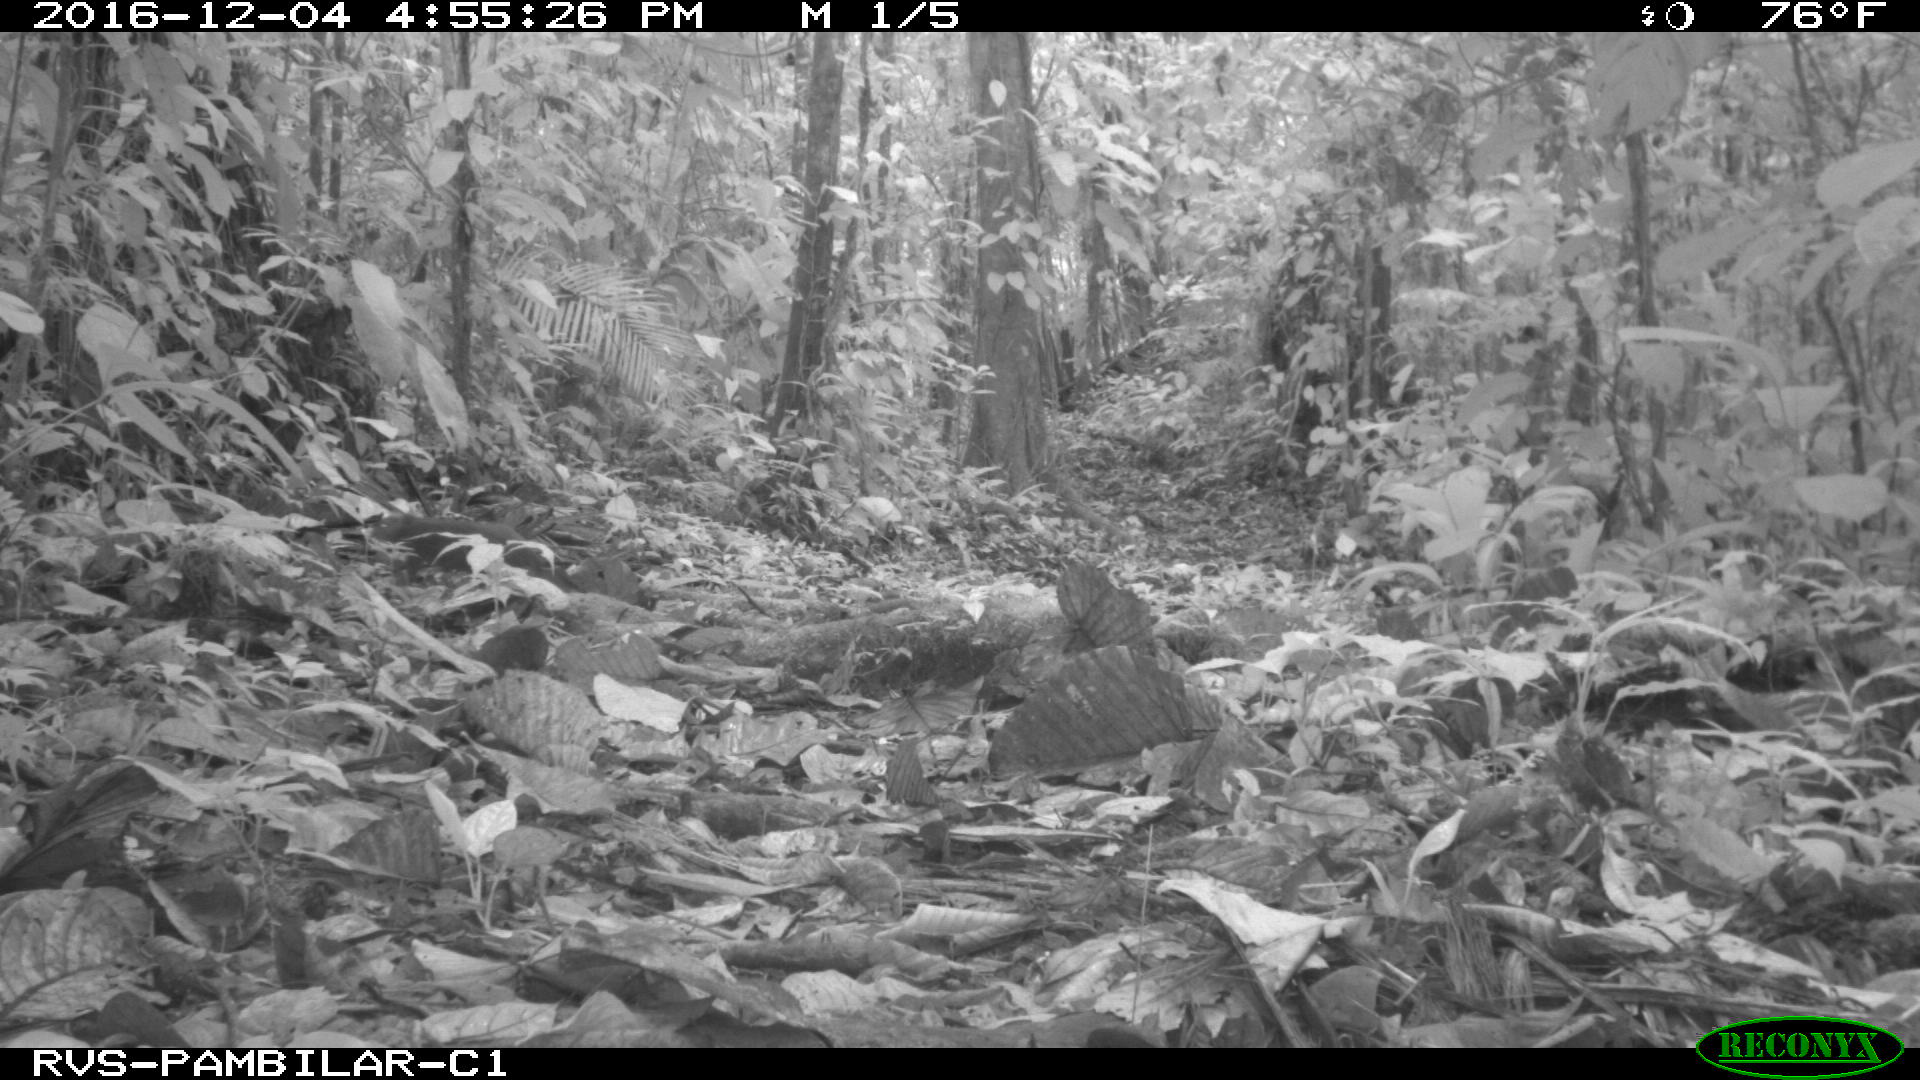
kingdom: Animalia
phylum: Chordata
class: Mammalia
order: Rodentia
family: Dasyproctidae
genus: Dasyprocta
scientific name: Dasyprocta punctata
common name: Central american agouti
